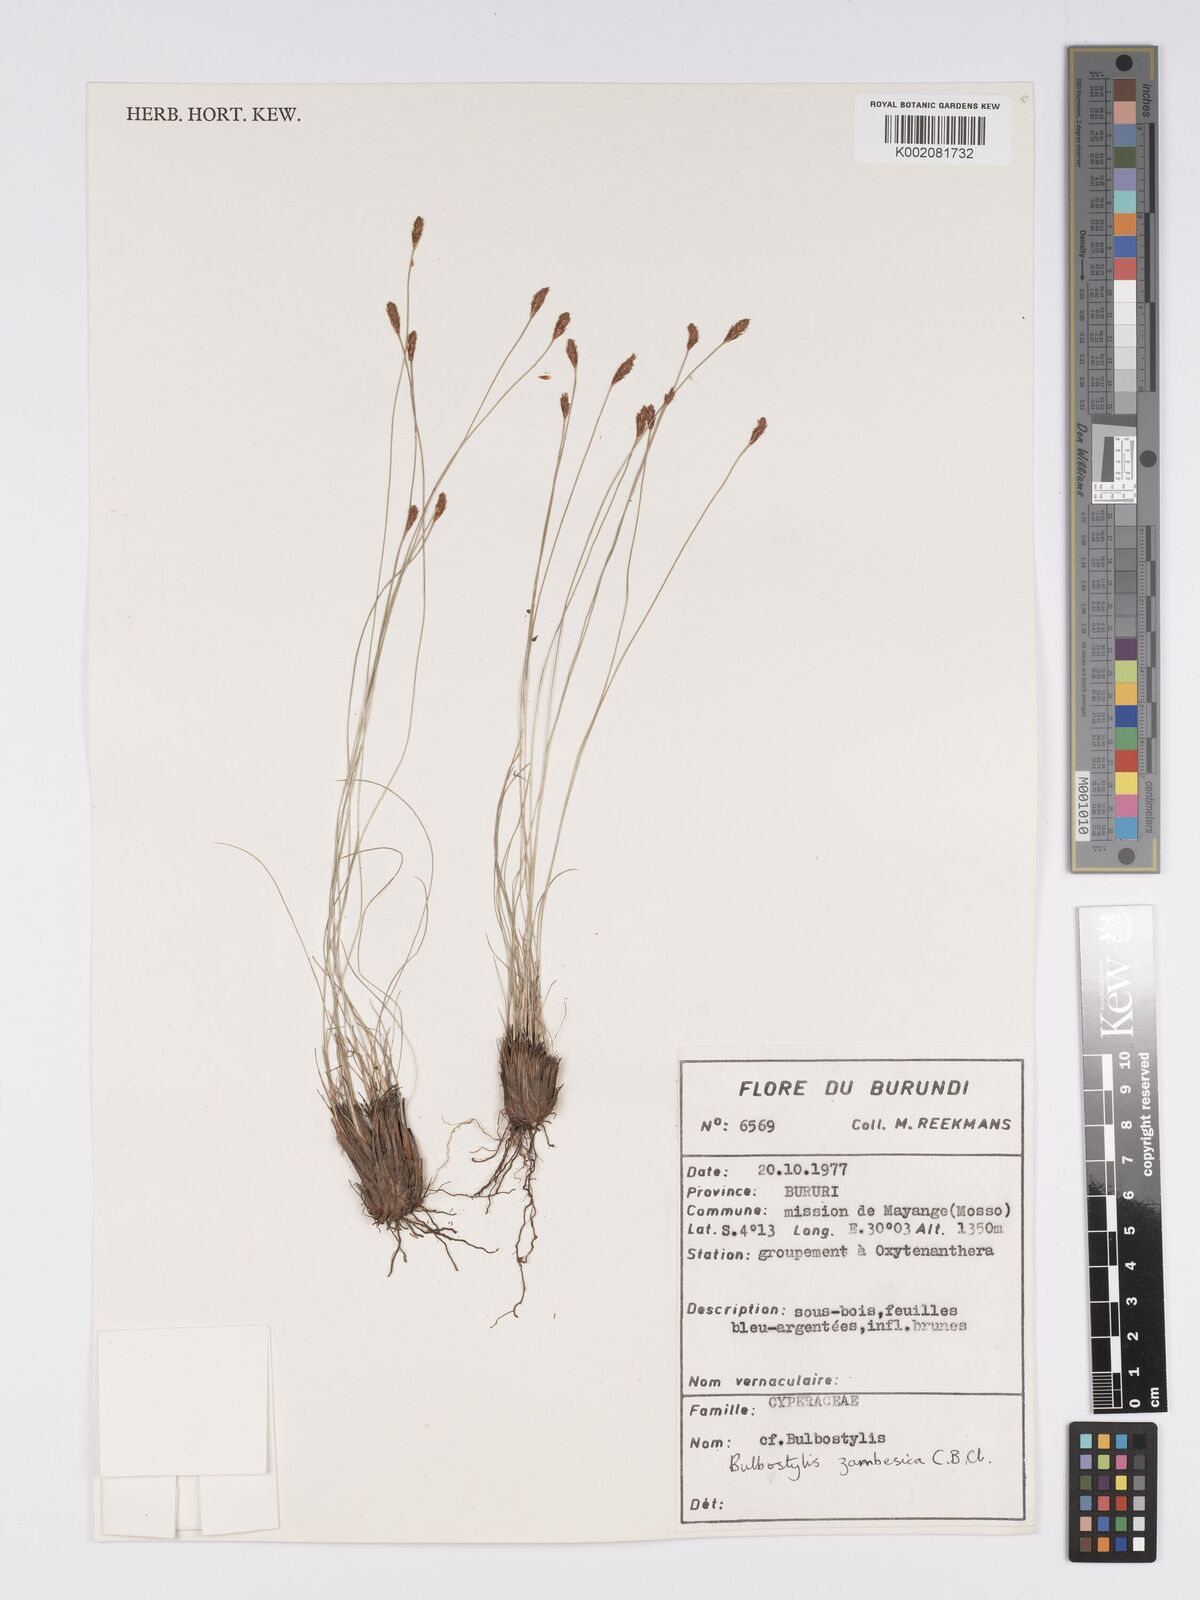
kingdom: Plantae
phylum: Tracheophyta
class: Liliopsida
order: Poales
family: Cyperaceae
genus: Bulbostylis
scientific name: Bulbostylis macra
